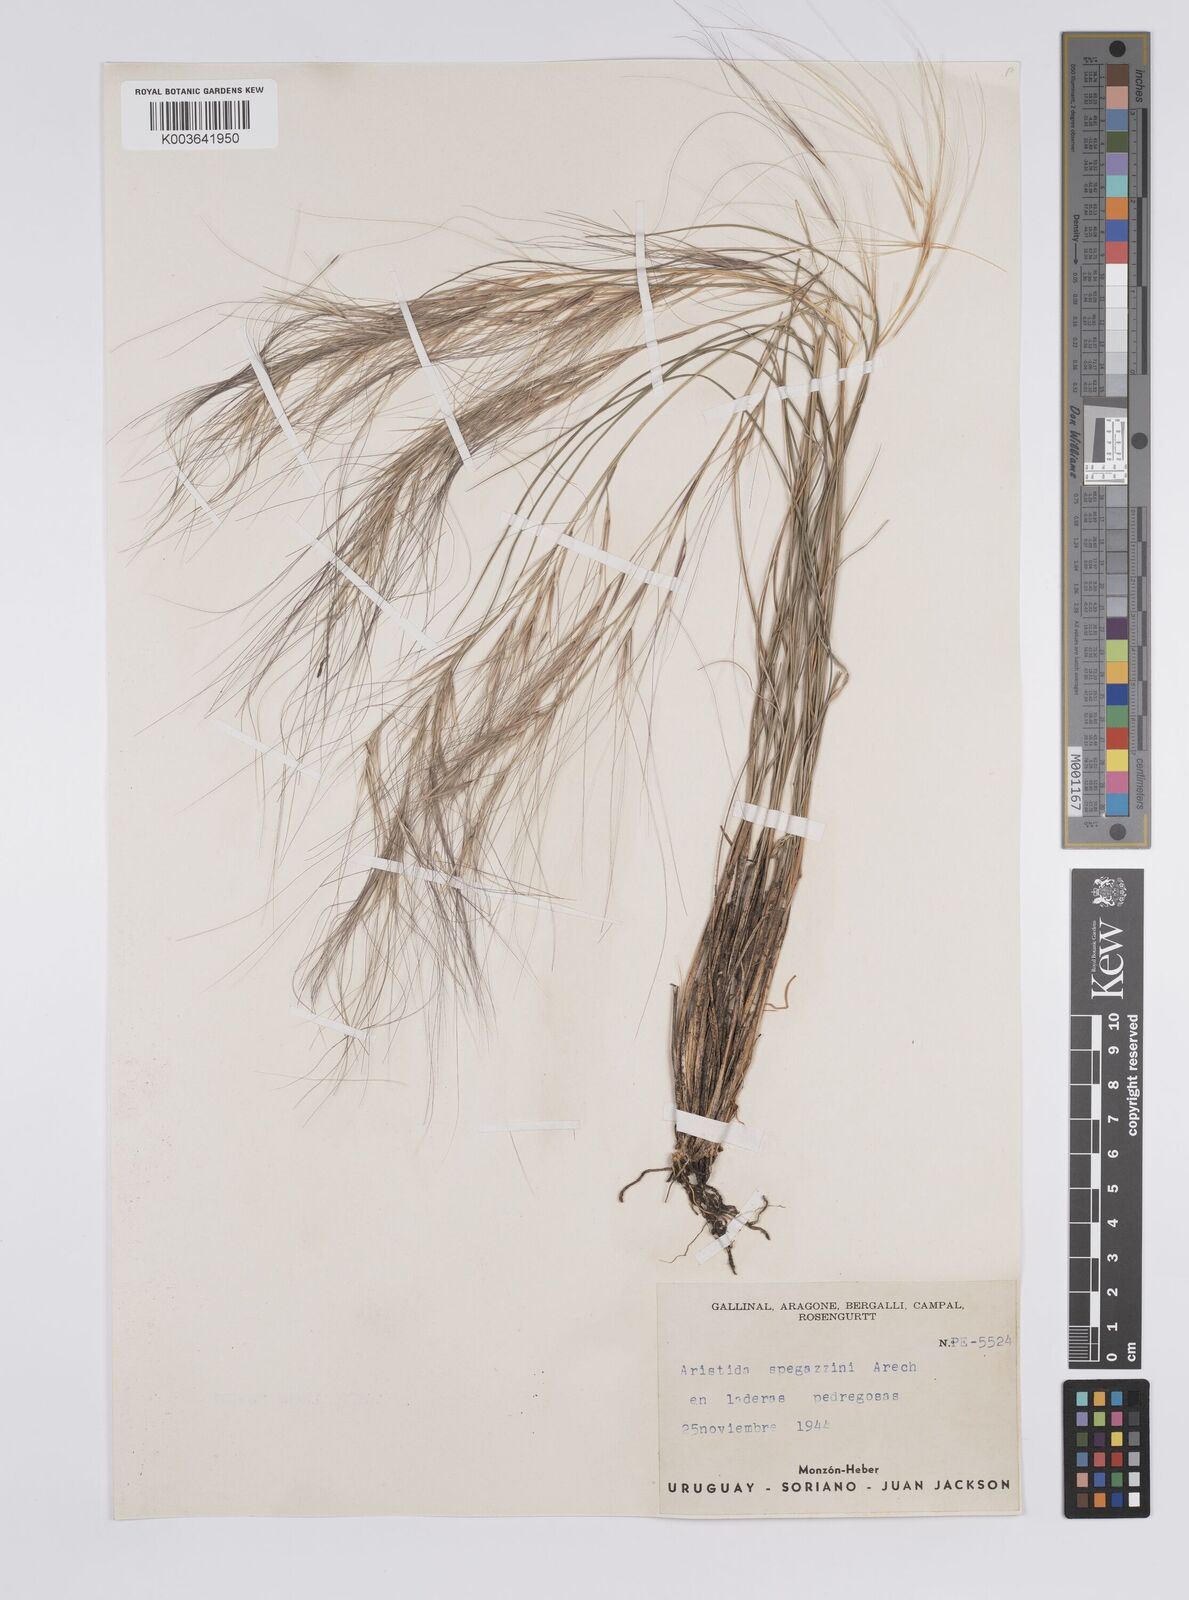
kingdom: Plantae
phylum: Tracheophyta
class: Liliopsida
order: Poales
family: Poaceae
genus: Aristida
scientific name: Aristida spegazzinii
